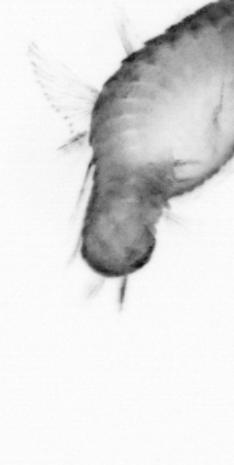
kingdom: Animalia
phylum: Annelida
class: Polychaeta
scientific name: Polychaeta
